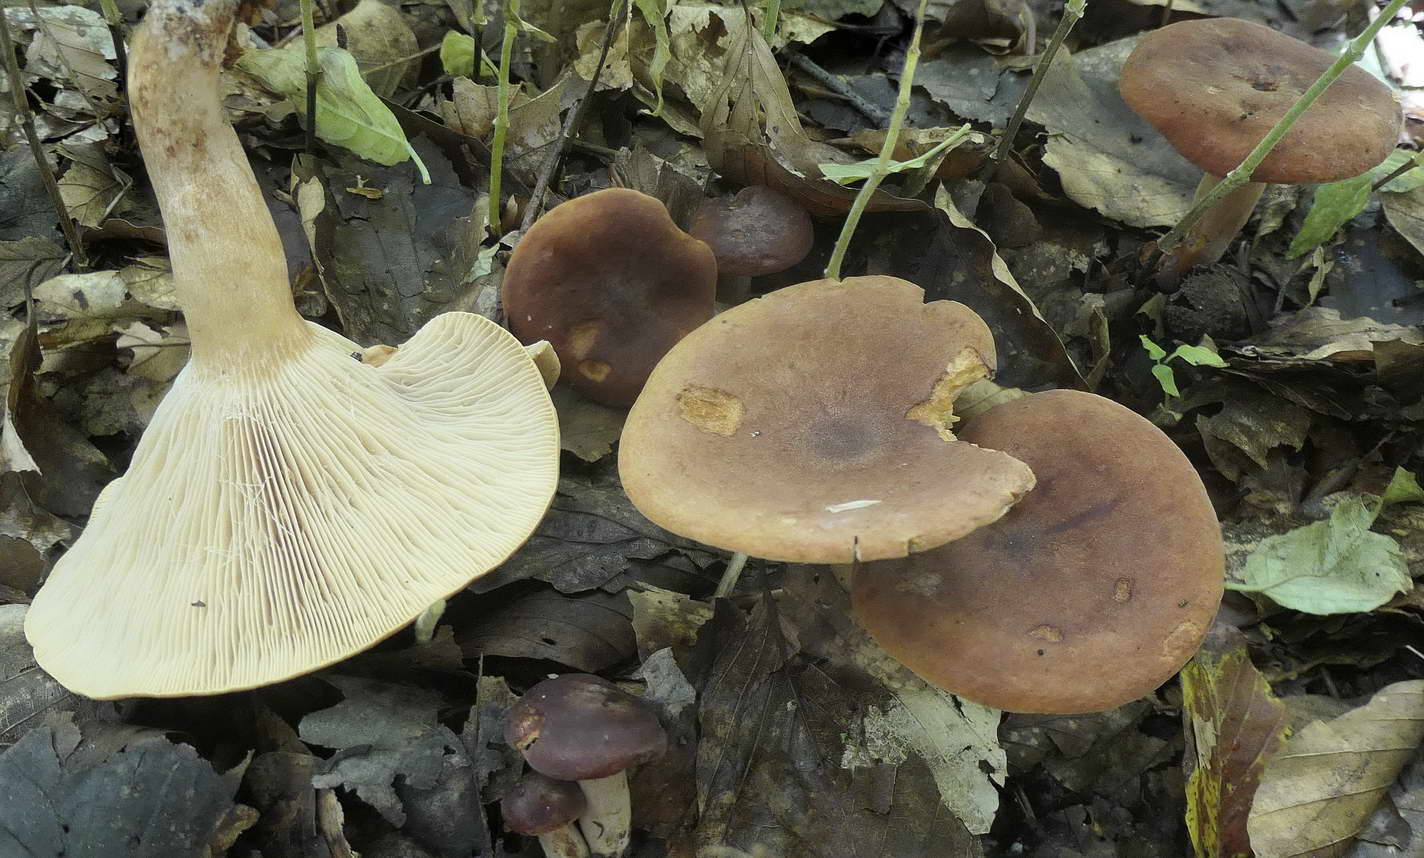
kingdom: Fungi
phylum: Basidiomycota
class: Agaricomycetes
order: Russulales
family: Russulaceae
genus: Lactarius
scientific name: Lactarius fulvissimus
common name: ræve-mælkehat
